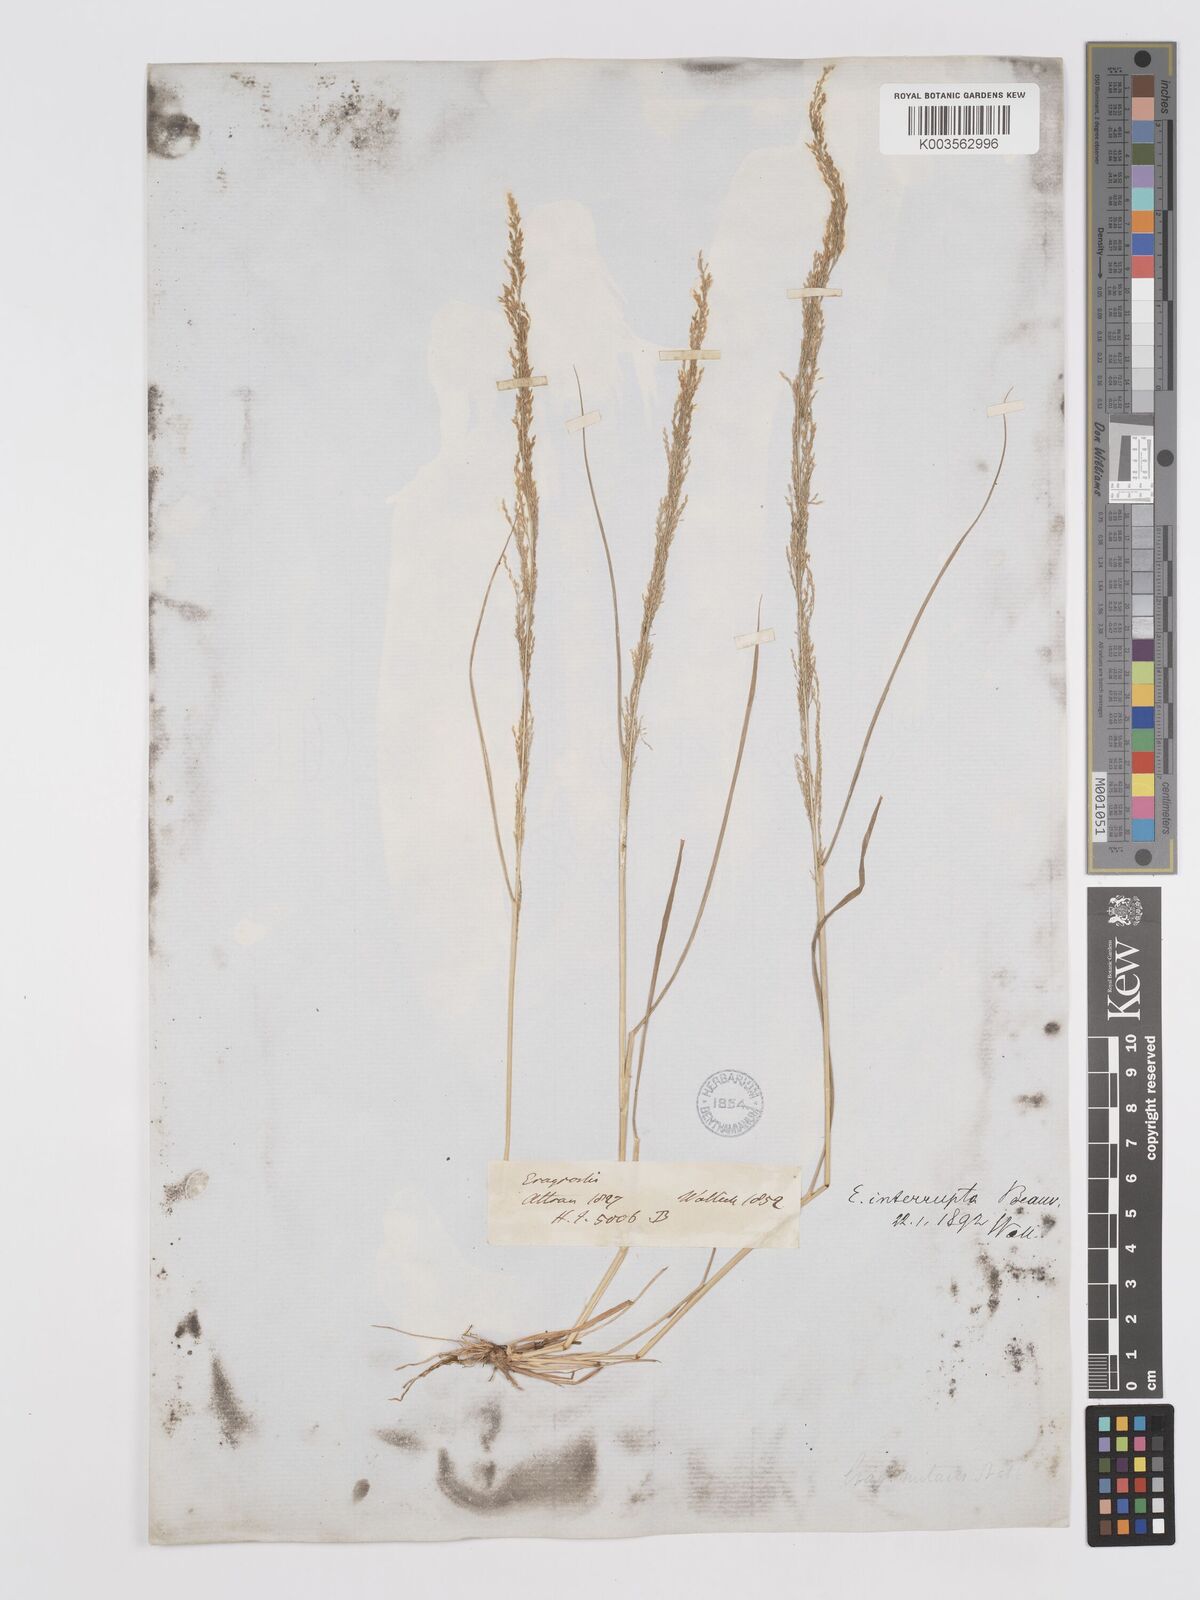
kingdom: Plantae
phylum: Tracheophyta
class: Liliopsida
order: Poales
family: Poaceae
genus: Eragrostis
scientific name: Eragrostis japonica
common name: Pond lovegrass
